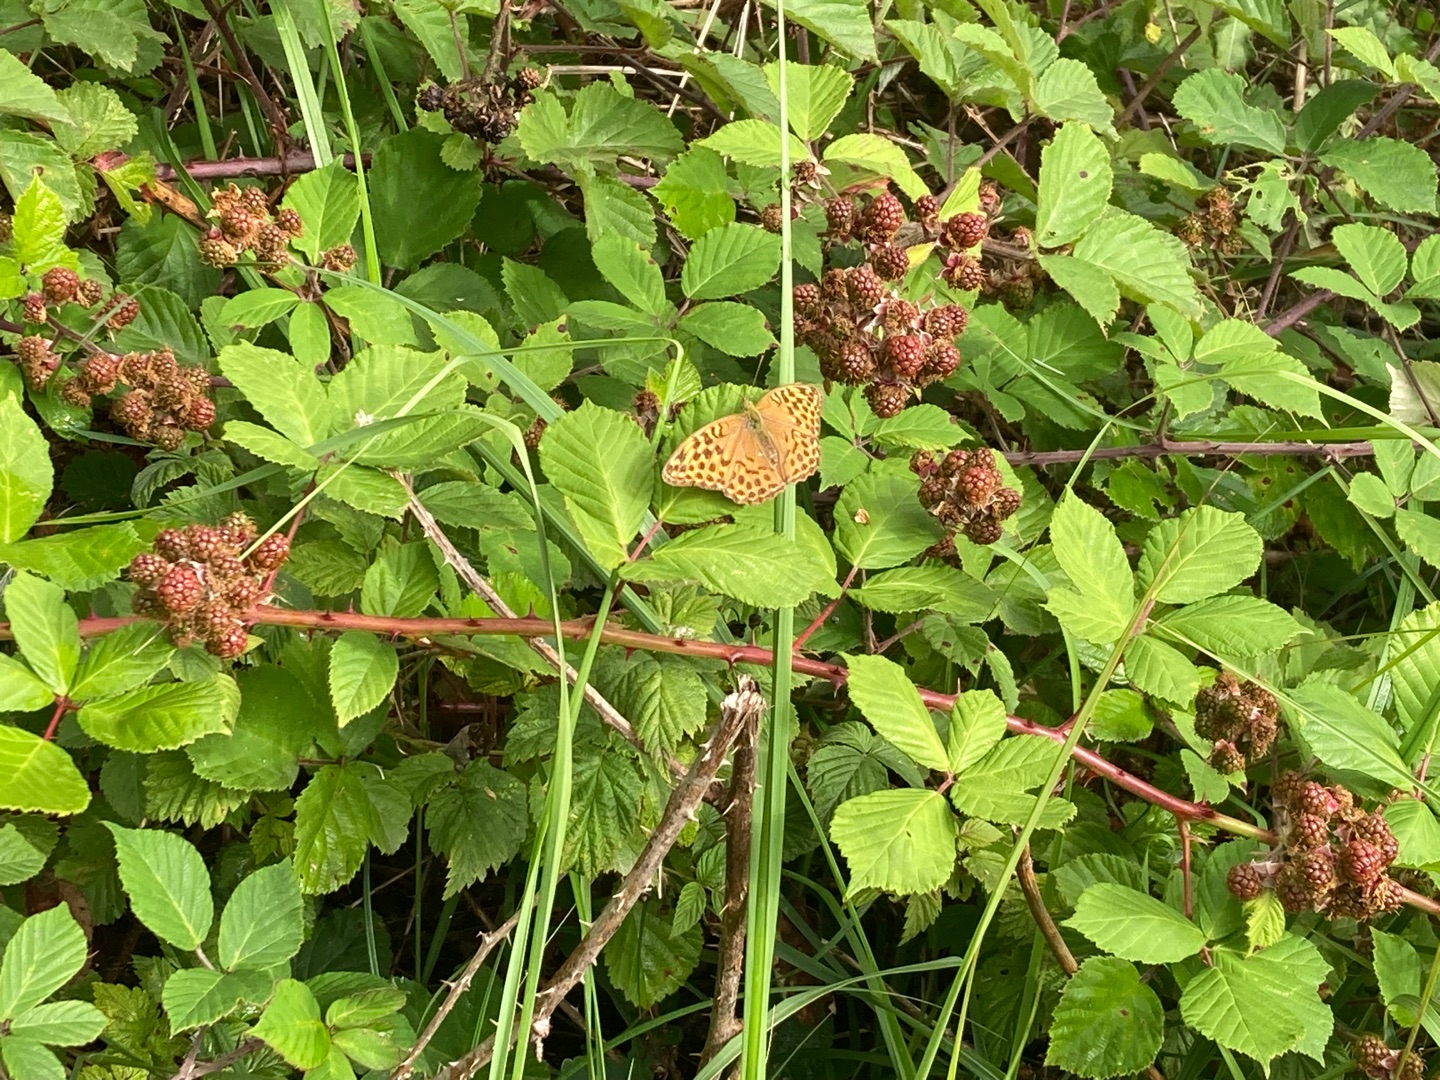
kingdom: Animalia
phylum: Arthropoda
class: Insecta
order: Lepidoptera
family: Nymphalidae
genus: Argynnis
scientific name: Argynnis paphia
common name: Kejserkåbe
